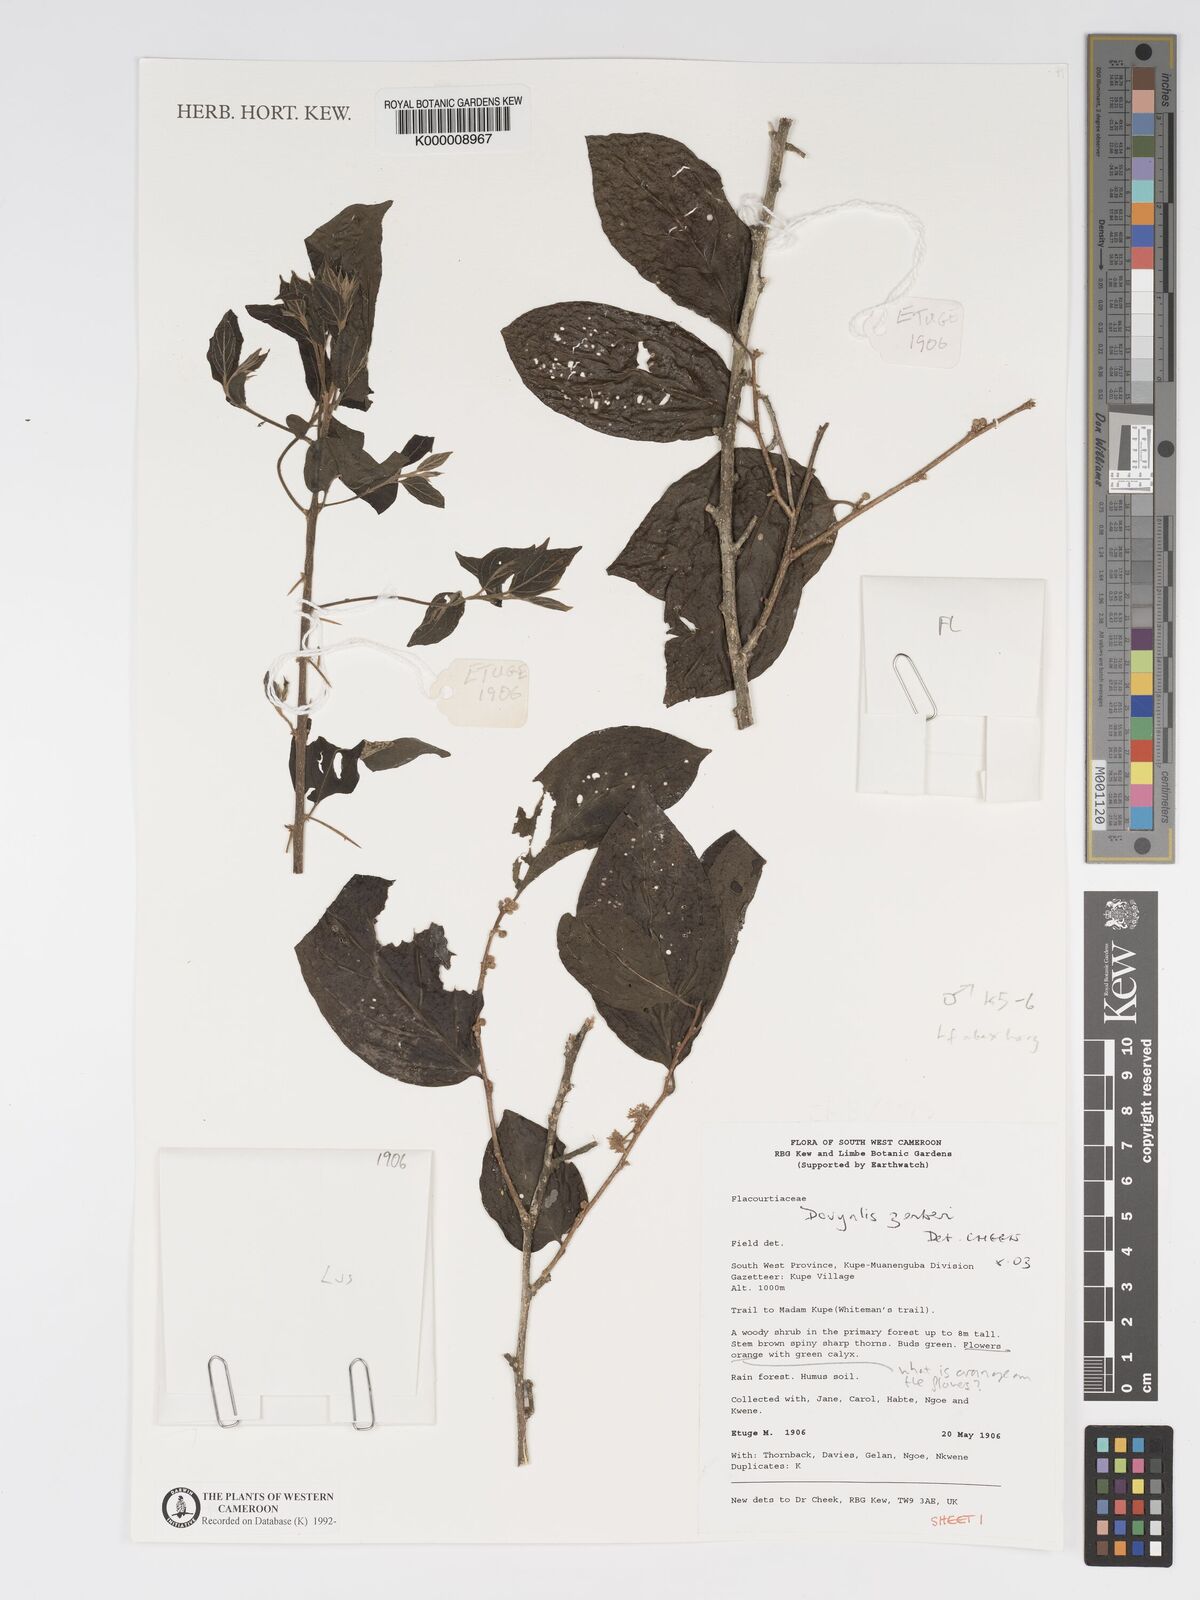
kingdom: Plantae
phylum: Tracheophyta
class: Magnoliopsida
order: Malpighiales
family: Salicaceae
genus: Dovyalis
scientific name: Dovyalis zenkeri
